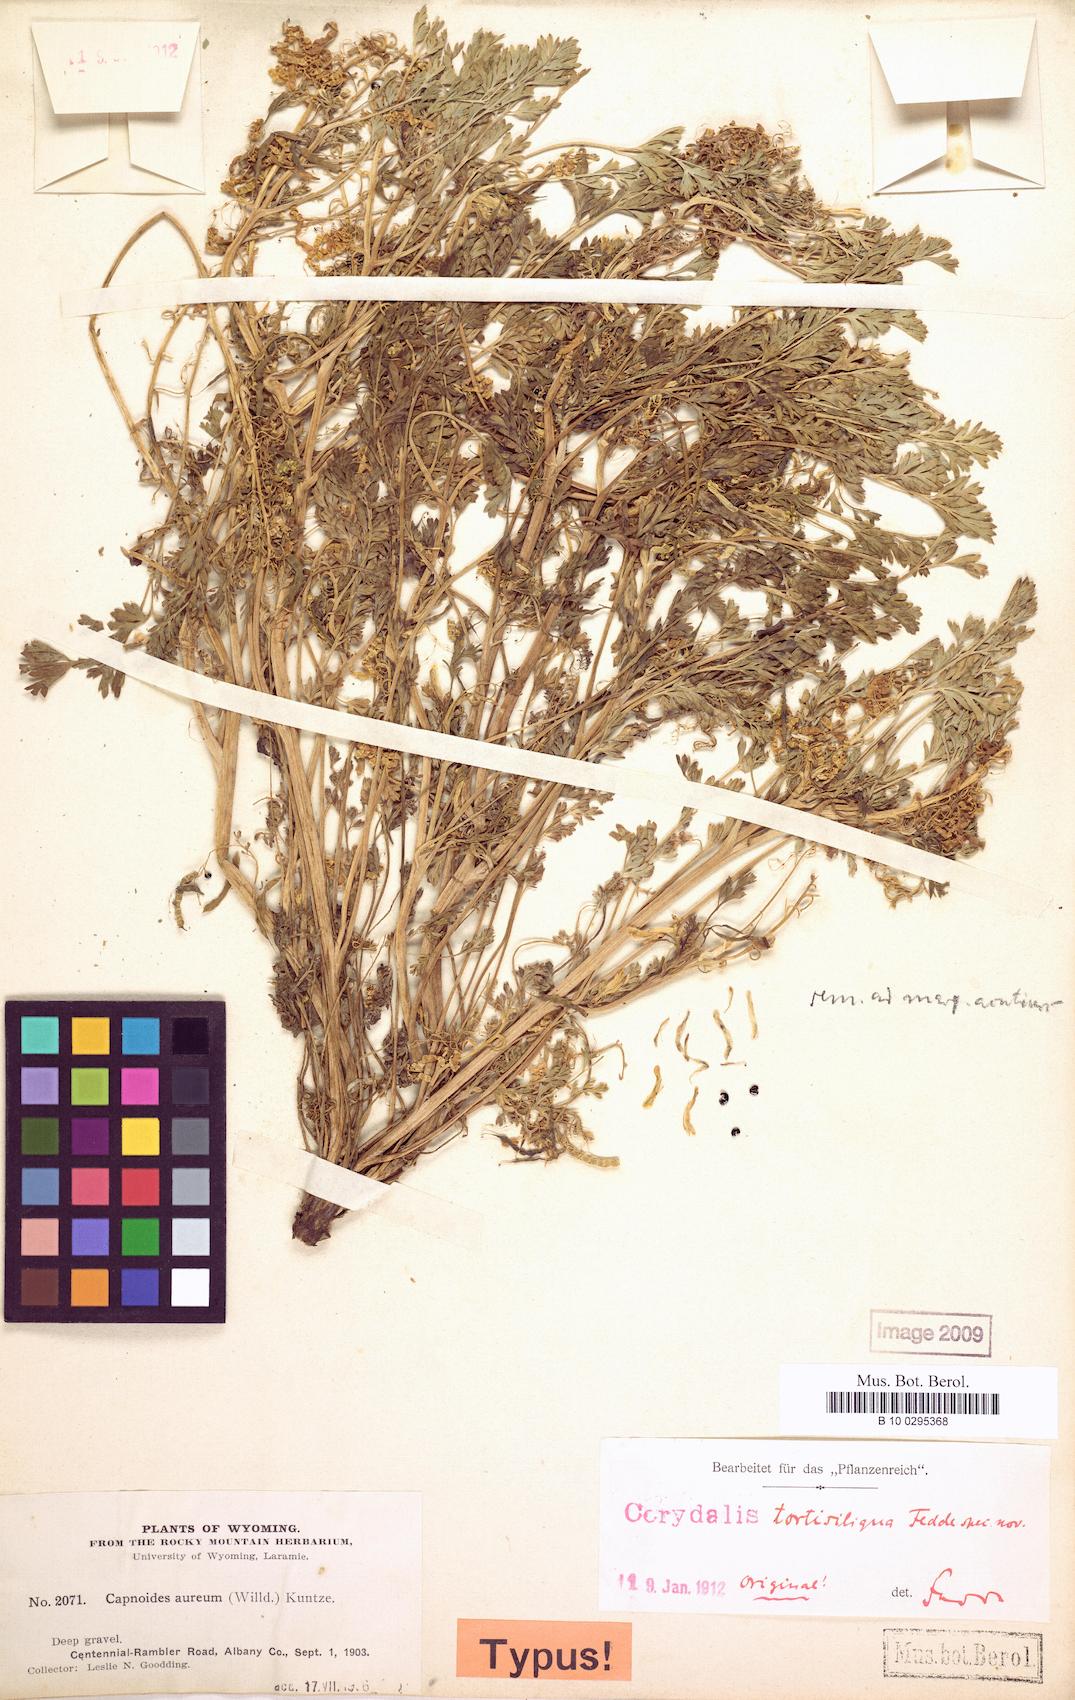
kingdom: Plantae
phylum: Tracheophyta
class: Magnoliopsida
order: Ranunculales
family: Papaveraceae
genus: Corydalis
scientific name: Corydalis aurea
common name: Golden corydalis
